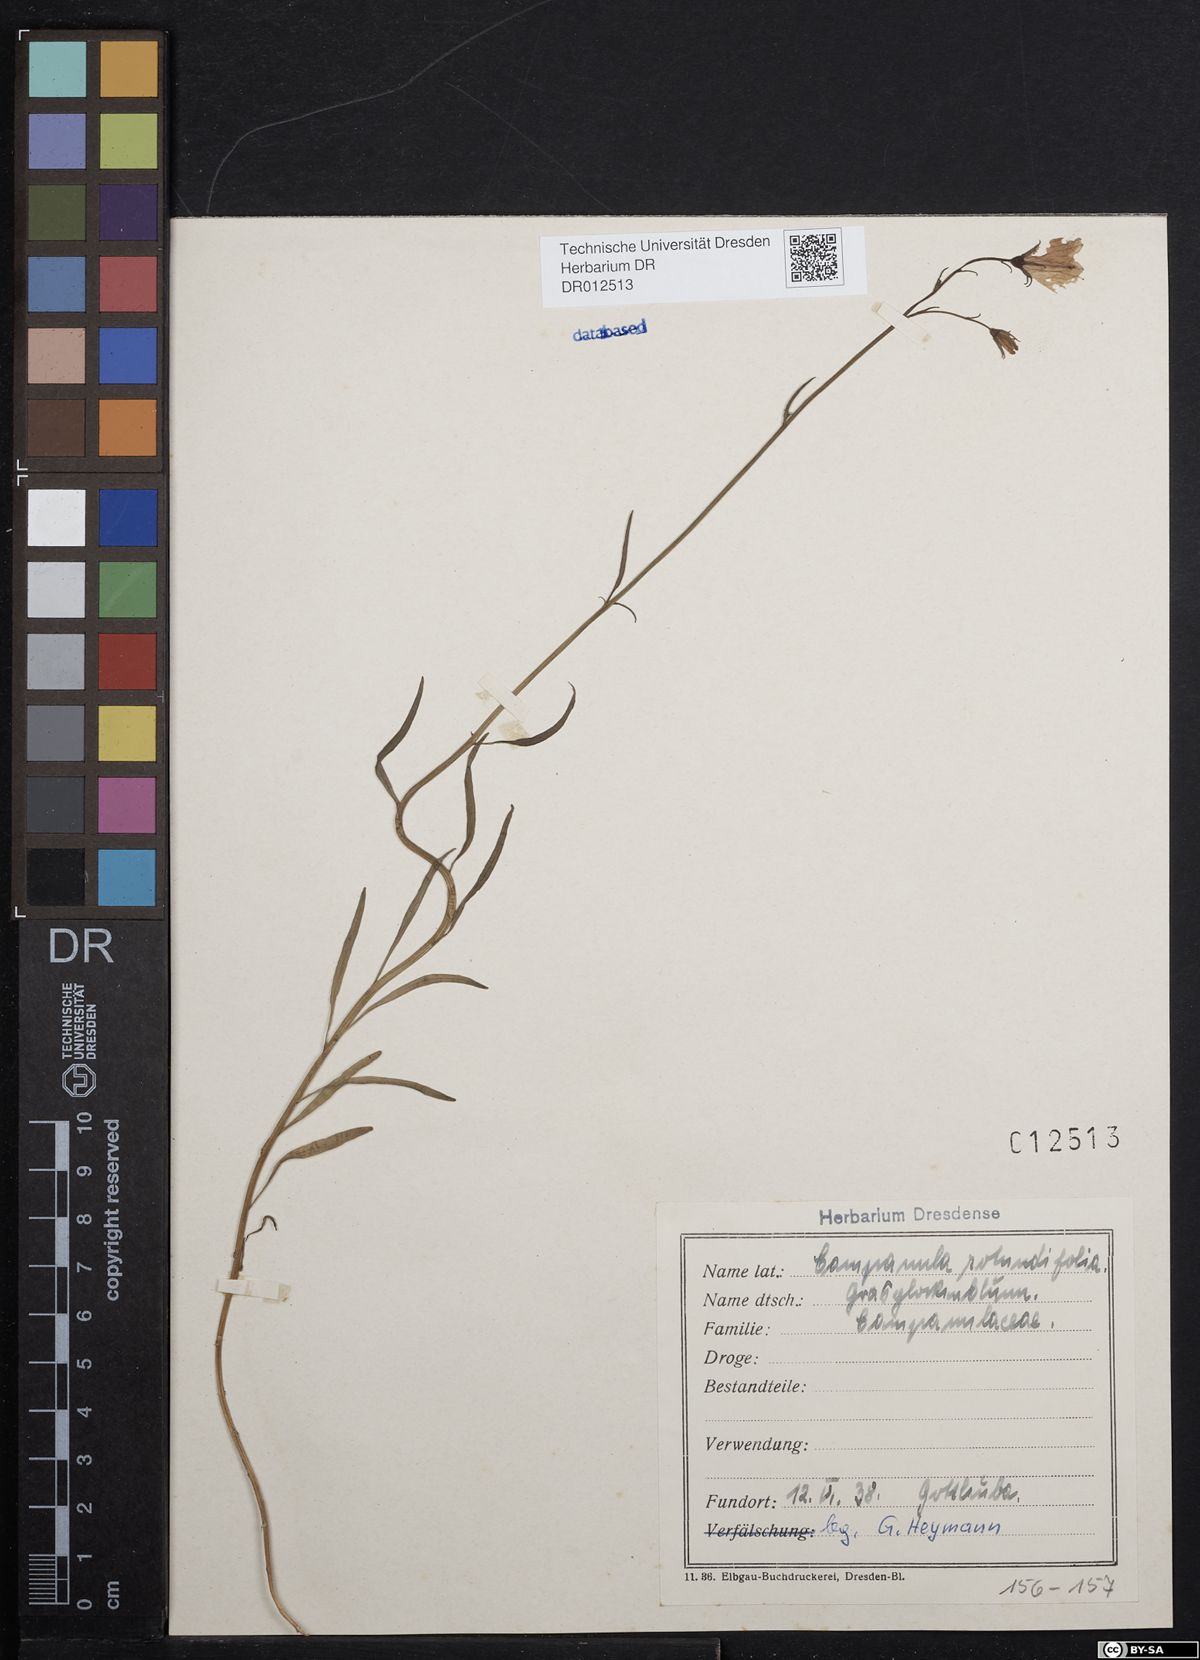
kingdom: Plantae
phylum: Tracheophyta
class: Magnoliopsida
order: Asterales
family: Campanulaceae
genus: Campanula
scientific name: Campanula rotundifolia
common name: Harebell
